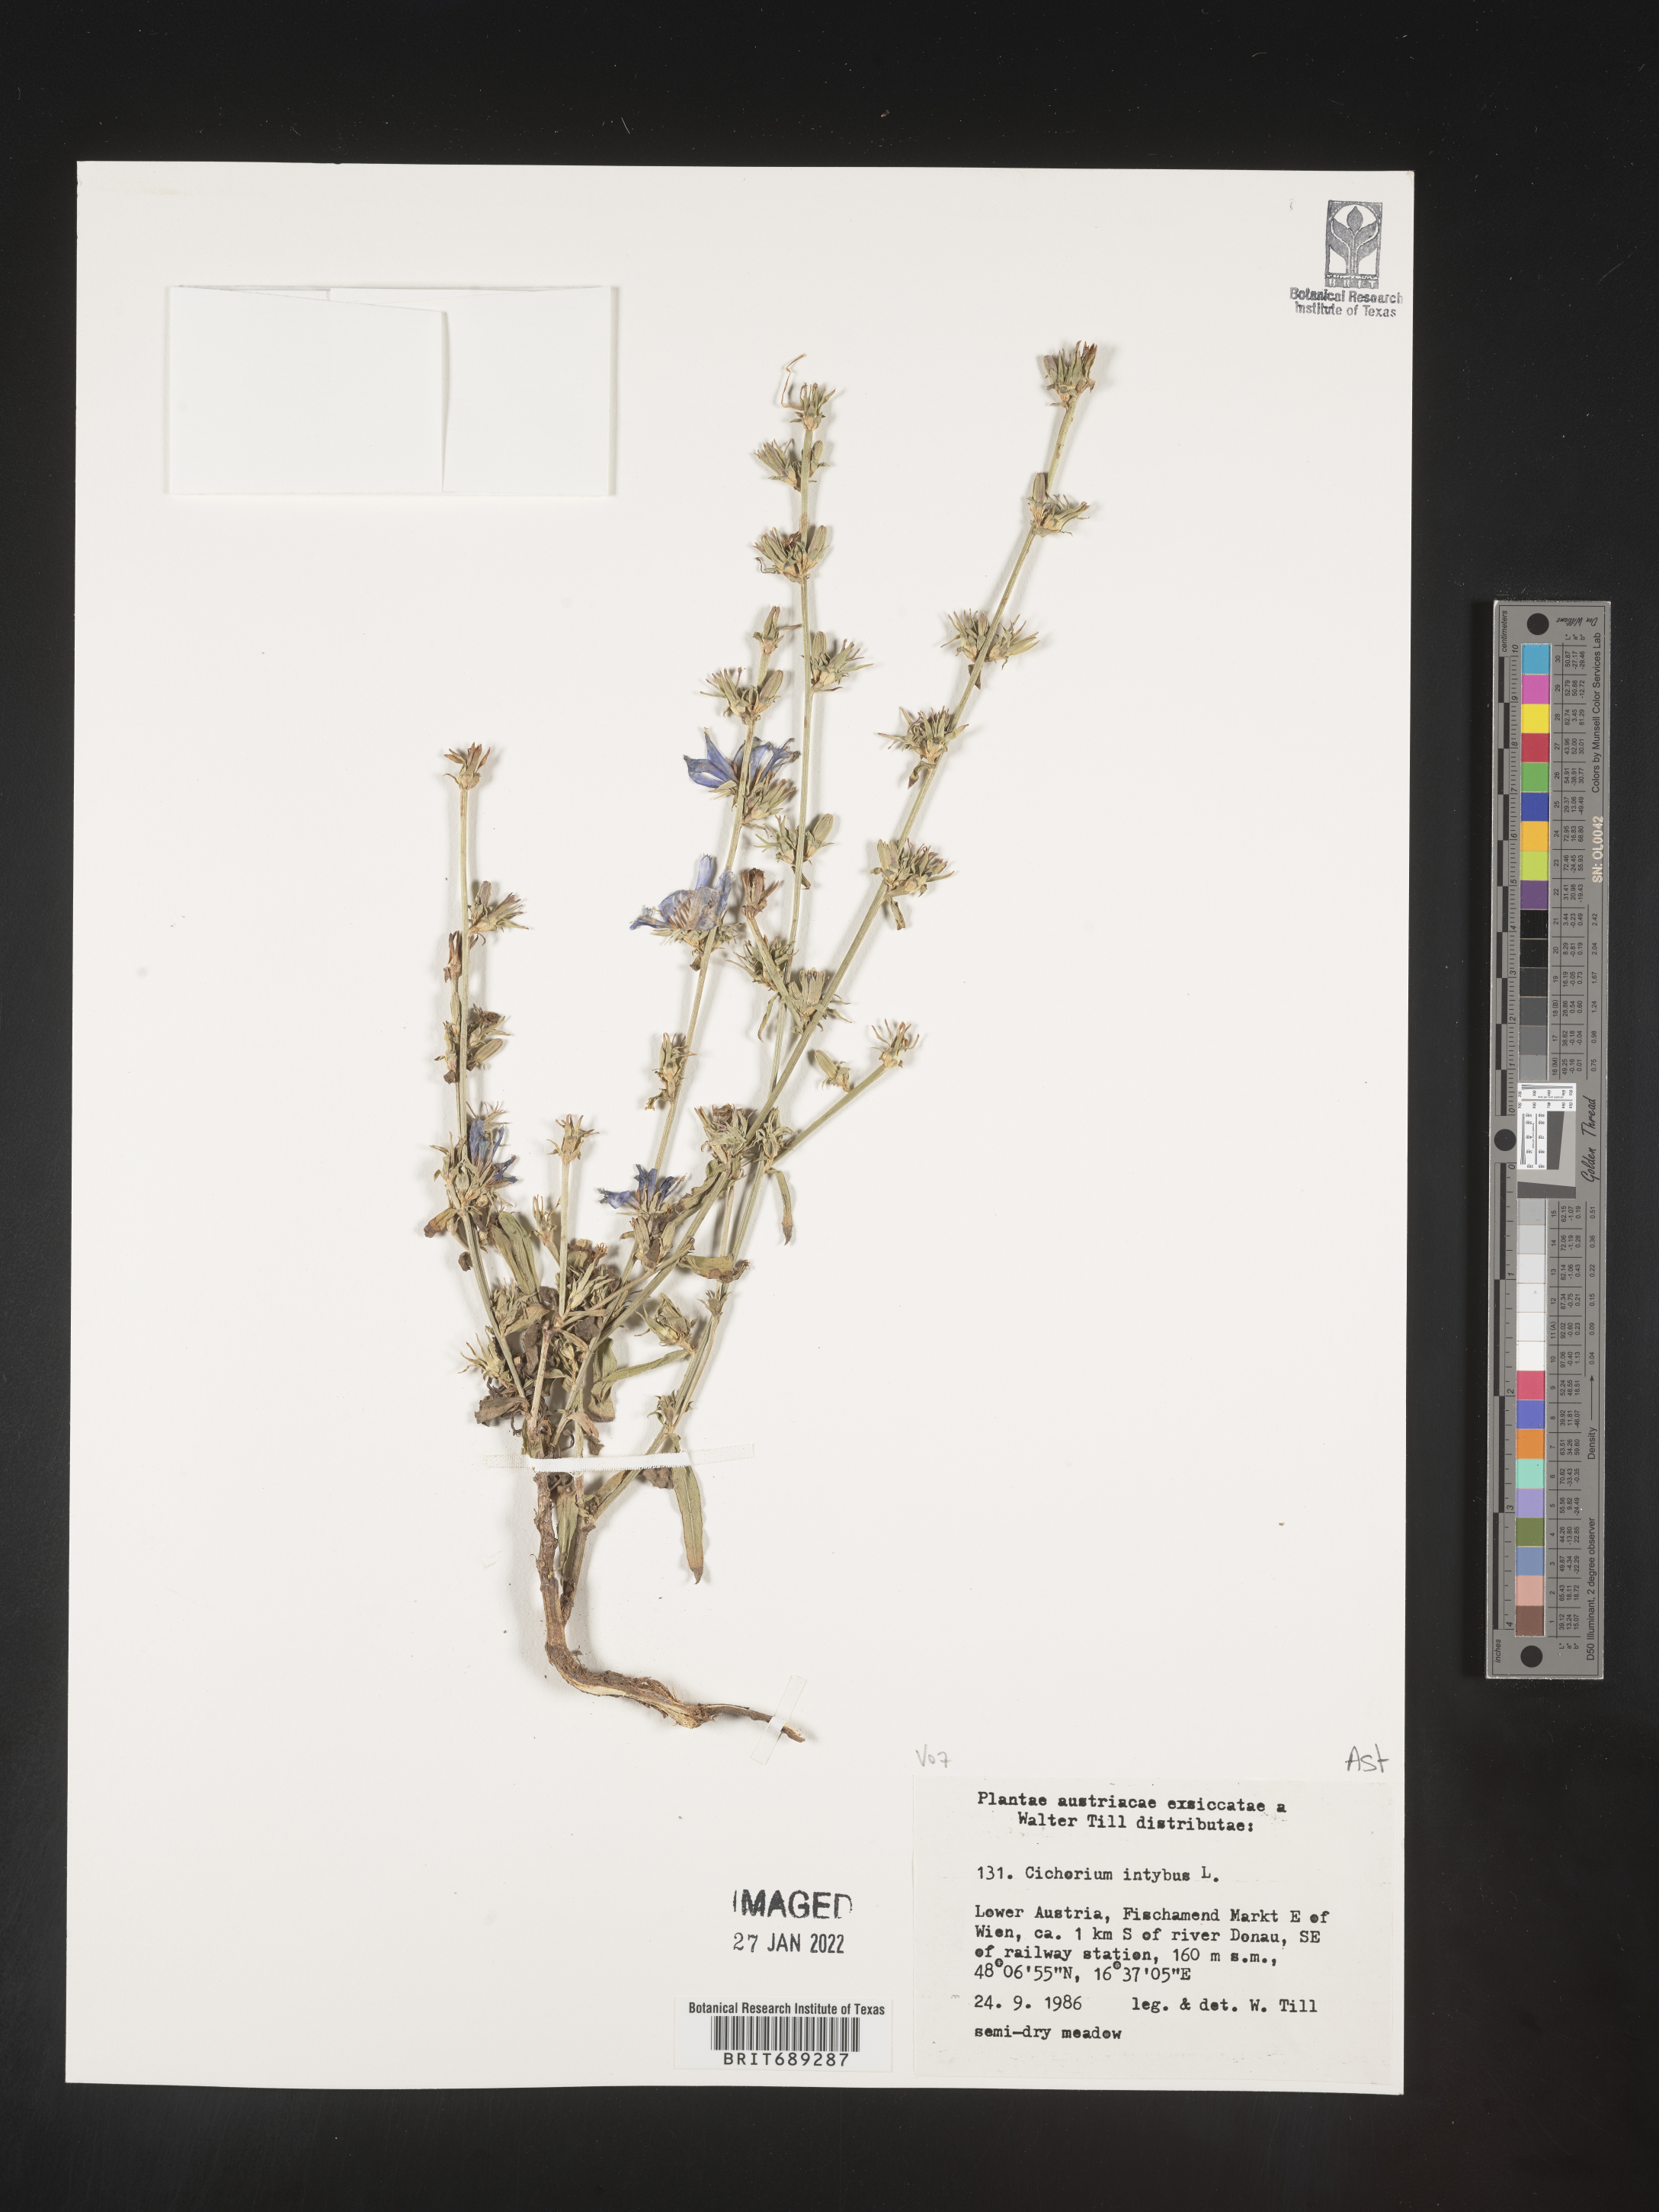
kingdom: Plantae
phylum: Tracheophyta
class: Magnoliopsida
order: Asterales
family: Asteraceae
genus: Cichorium
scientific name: Cichorium
